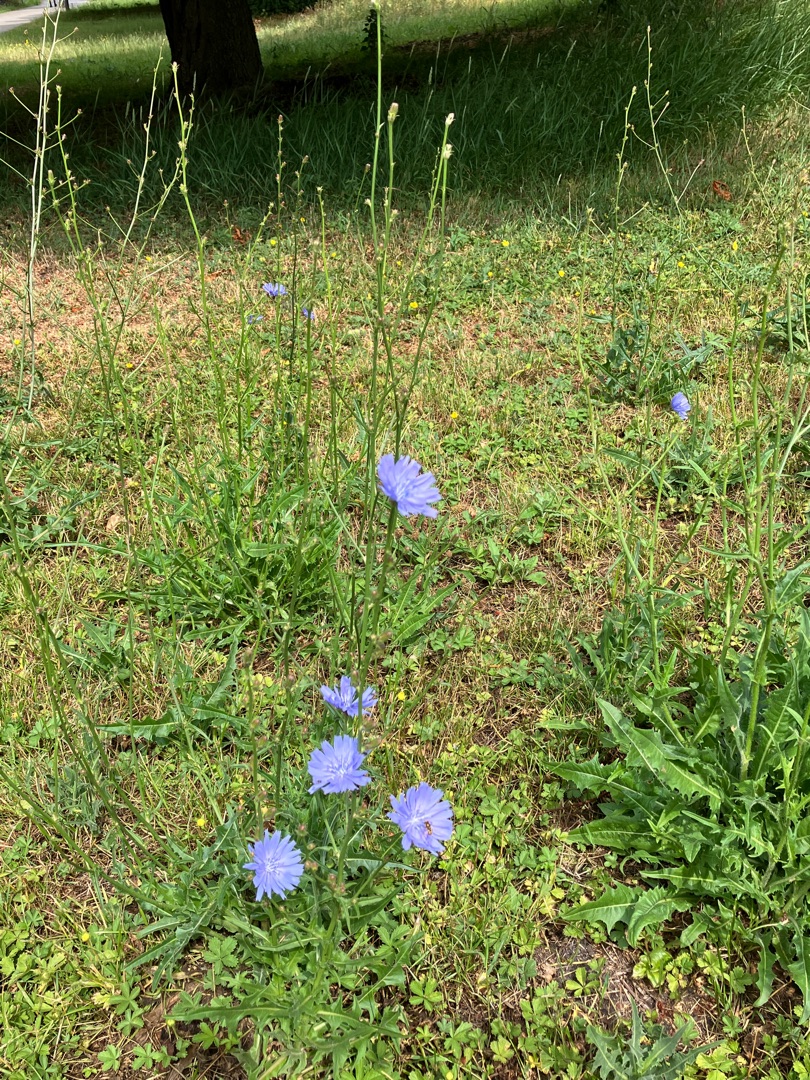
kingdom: Plantae
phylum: Tracheophyta
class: Magnoliopsida
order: Asterales
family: Asteraceae
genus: Cichorium
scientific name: Cichorium intybus
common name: Cikorie (varietet)
